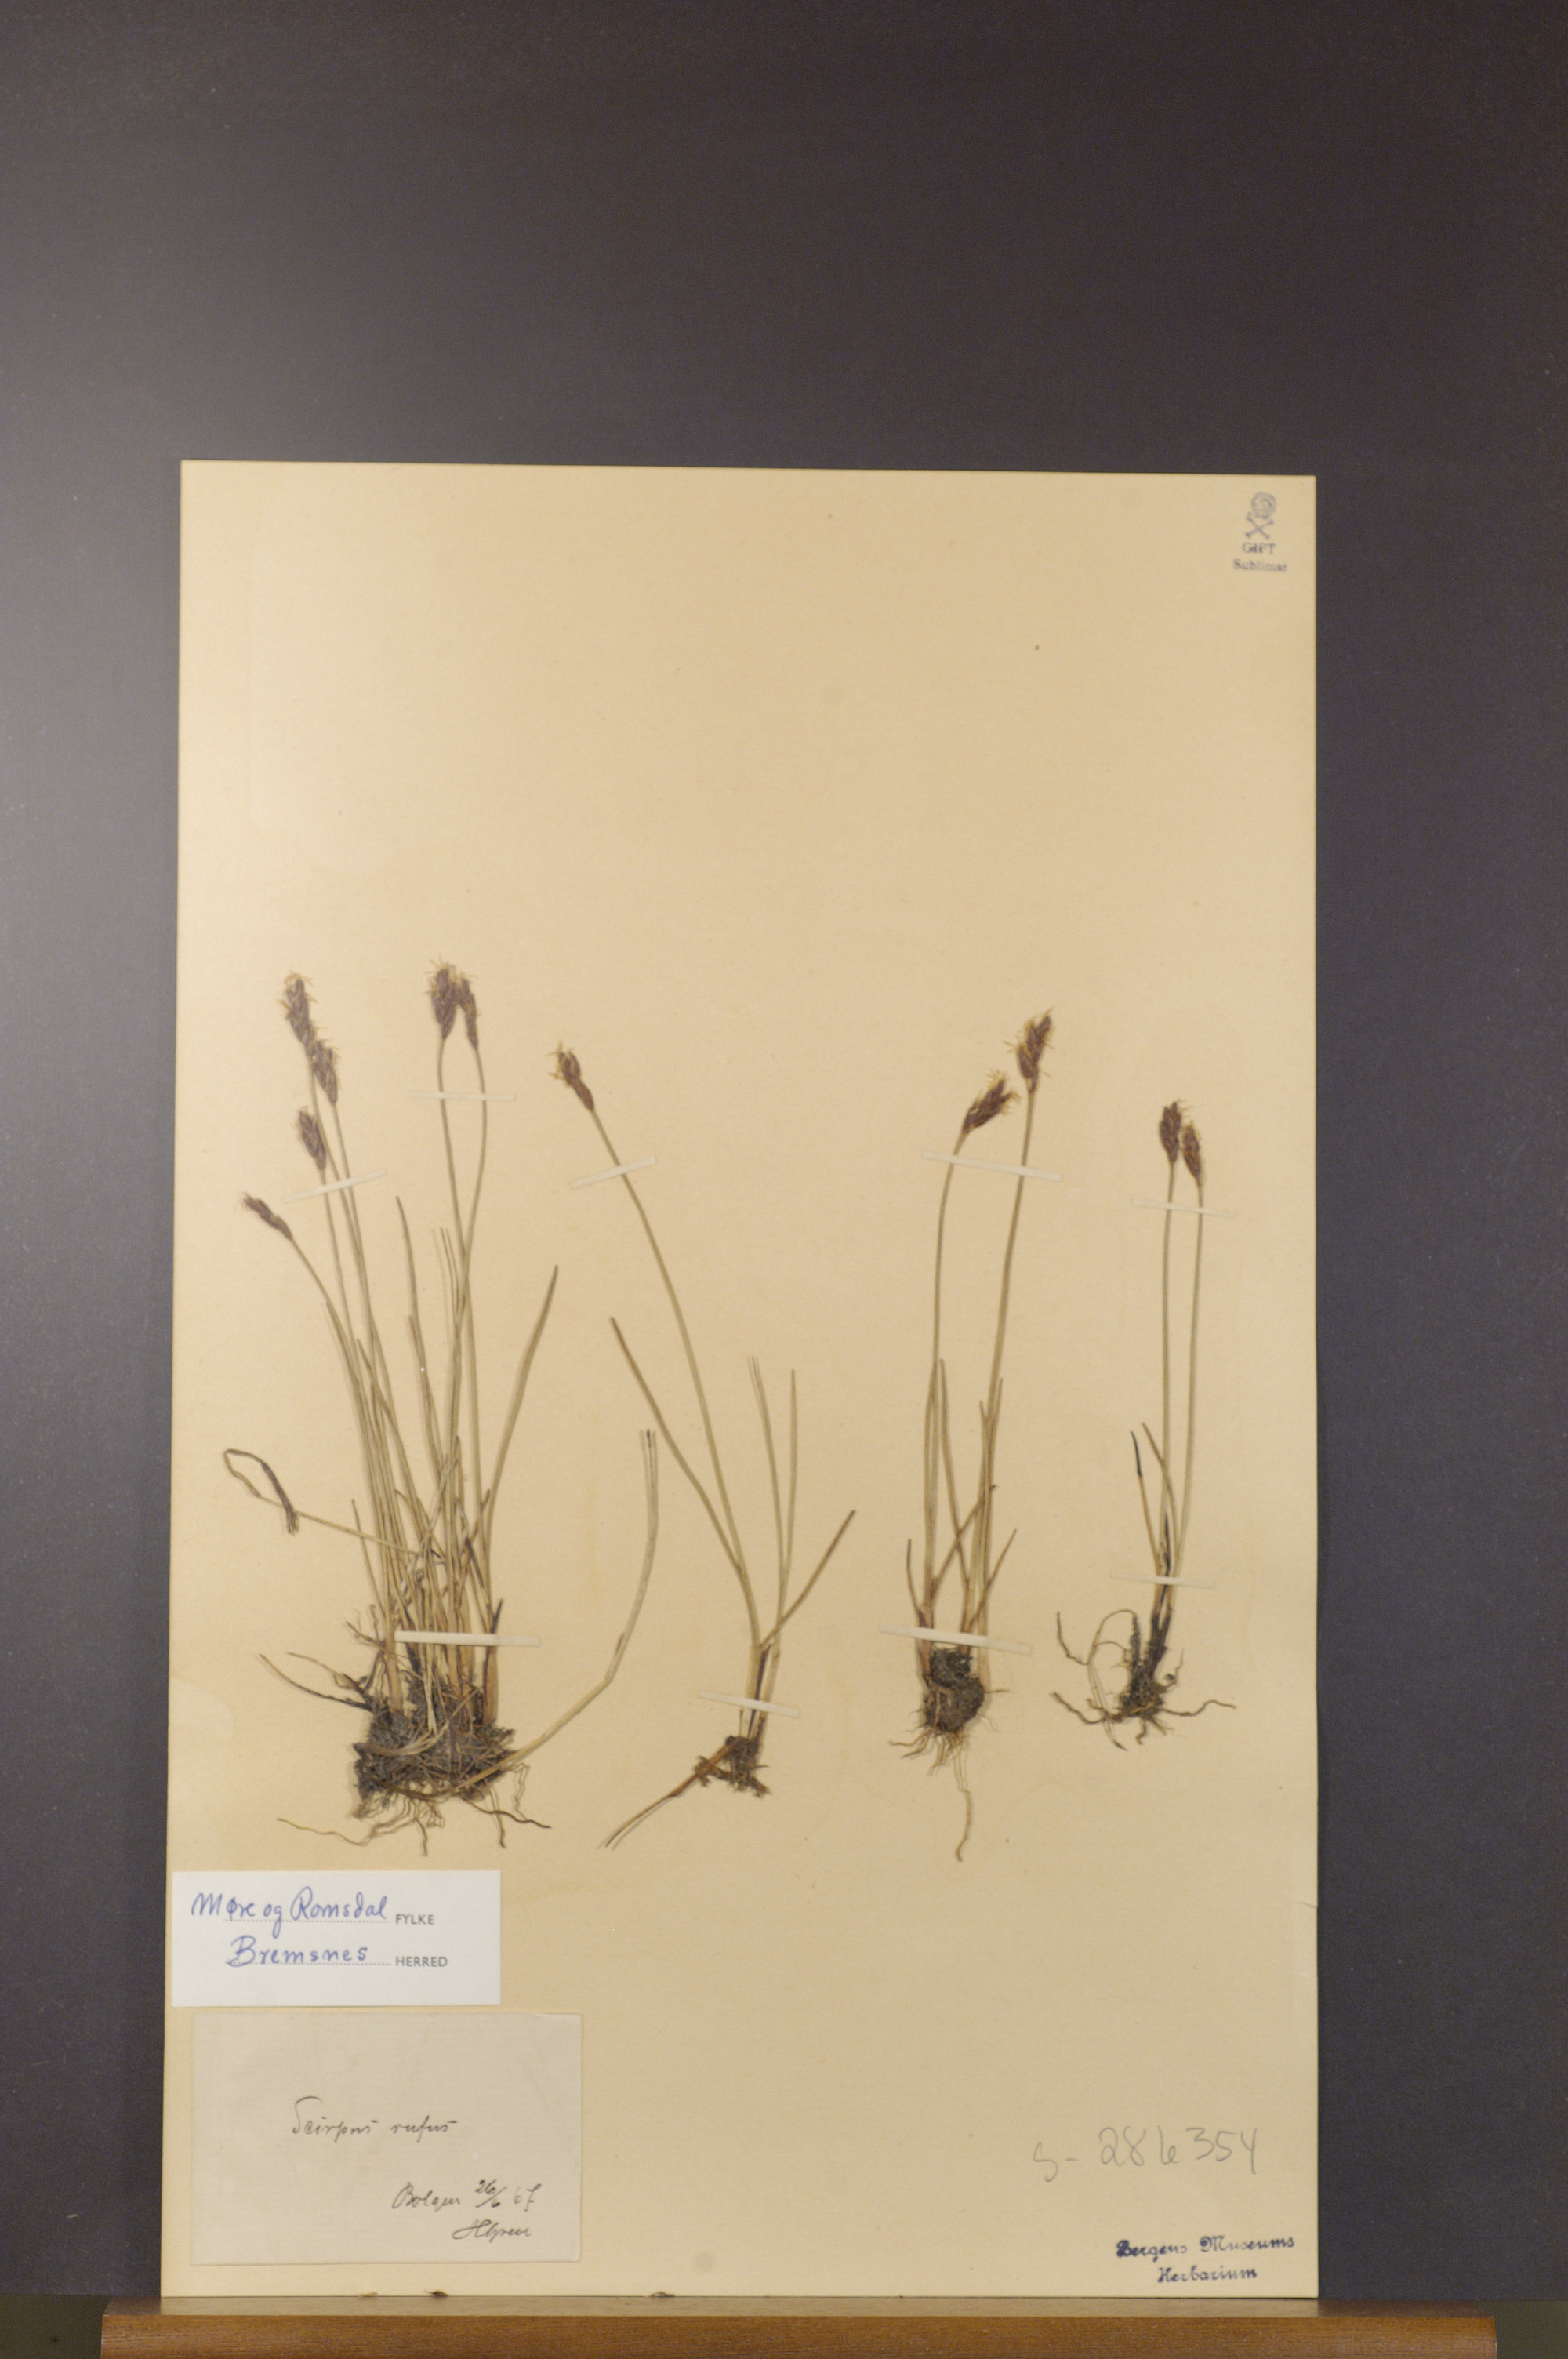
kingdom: Plantae
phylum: Tracheophyta
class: Liliopsida
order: Poales
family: Cyperaceae
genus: Blysmus
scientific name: Blysmus rufus
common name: Saltmarsh flat-sedge
